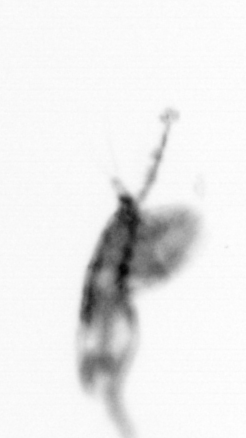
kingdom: Animalia
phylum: Arthropoda
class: Copepoda
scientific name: Copepoda
